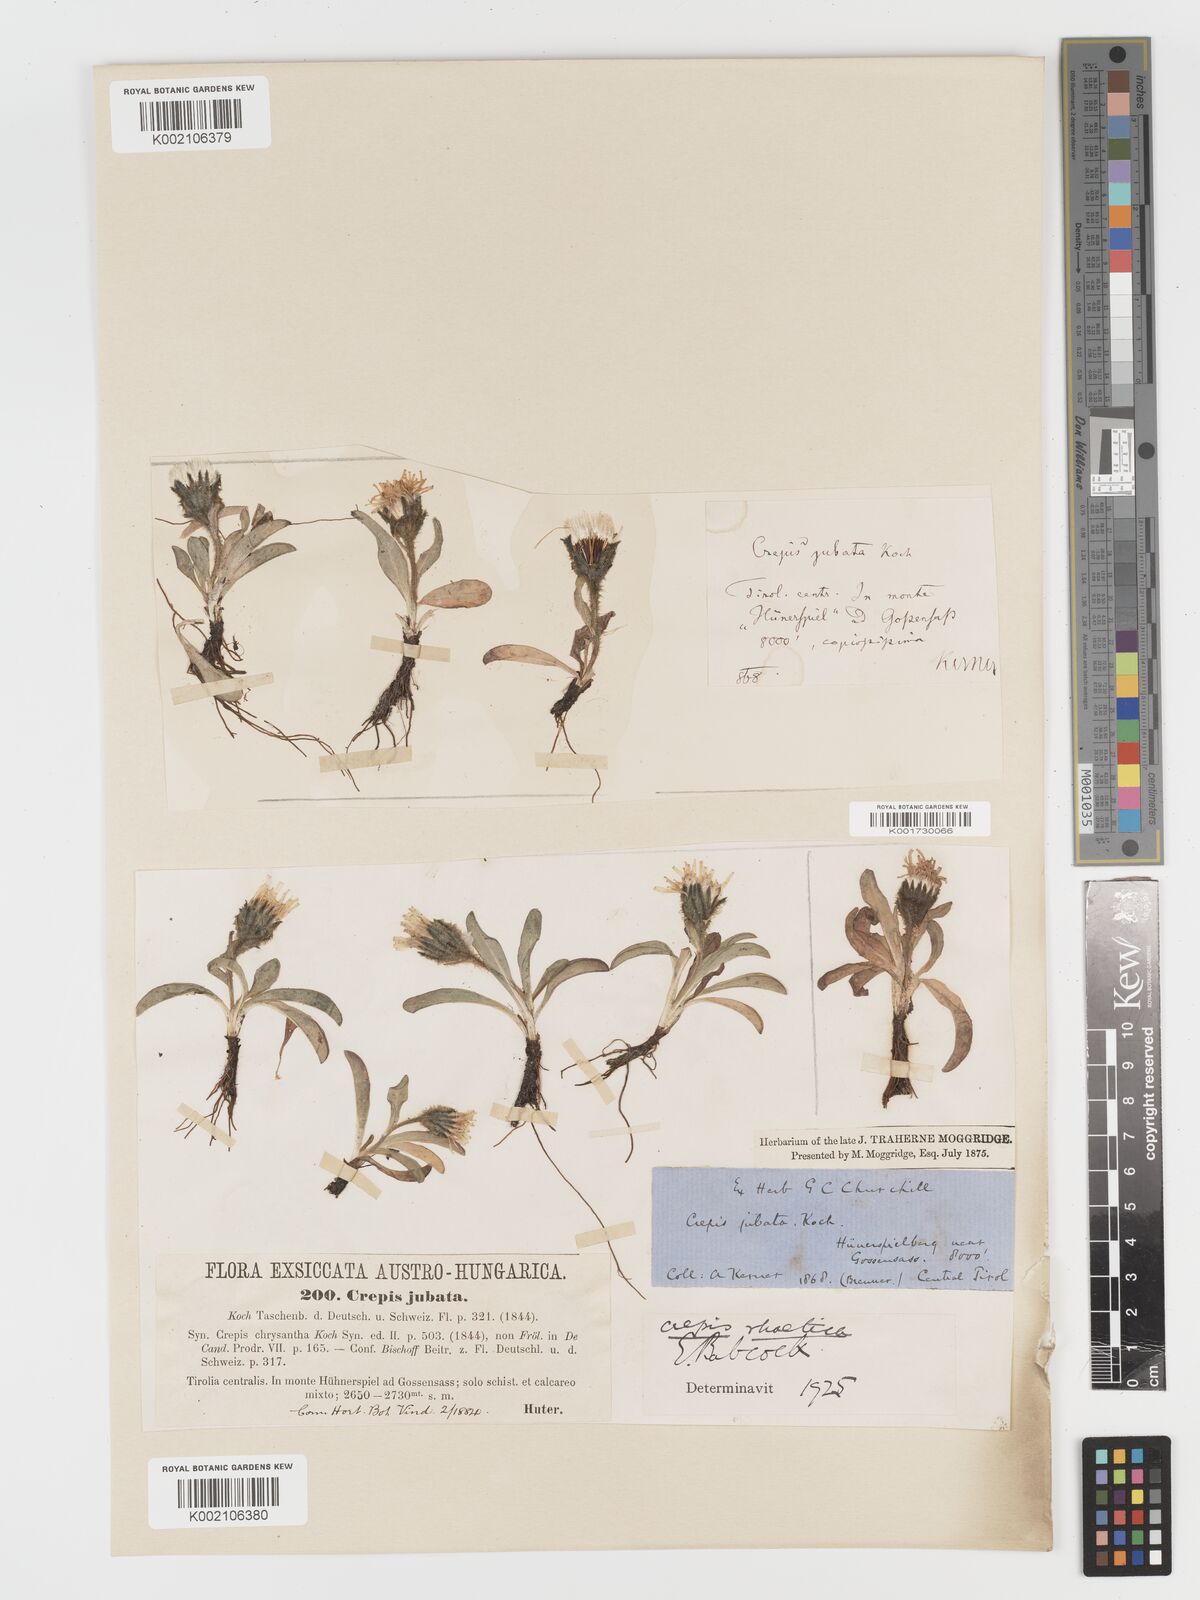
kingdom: Plantae
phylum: Tracheophyta
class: Magnoliopsida
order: Asterales
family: Asteraceae
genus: Crepis
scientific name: Crepis
